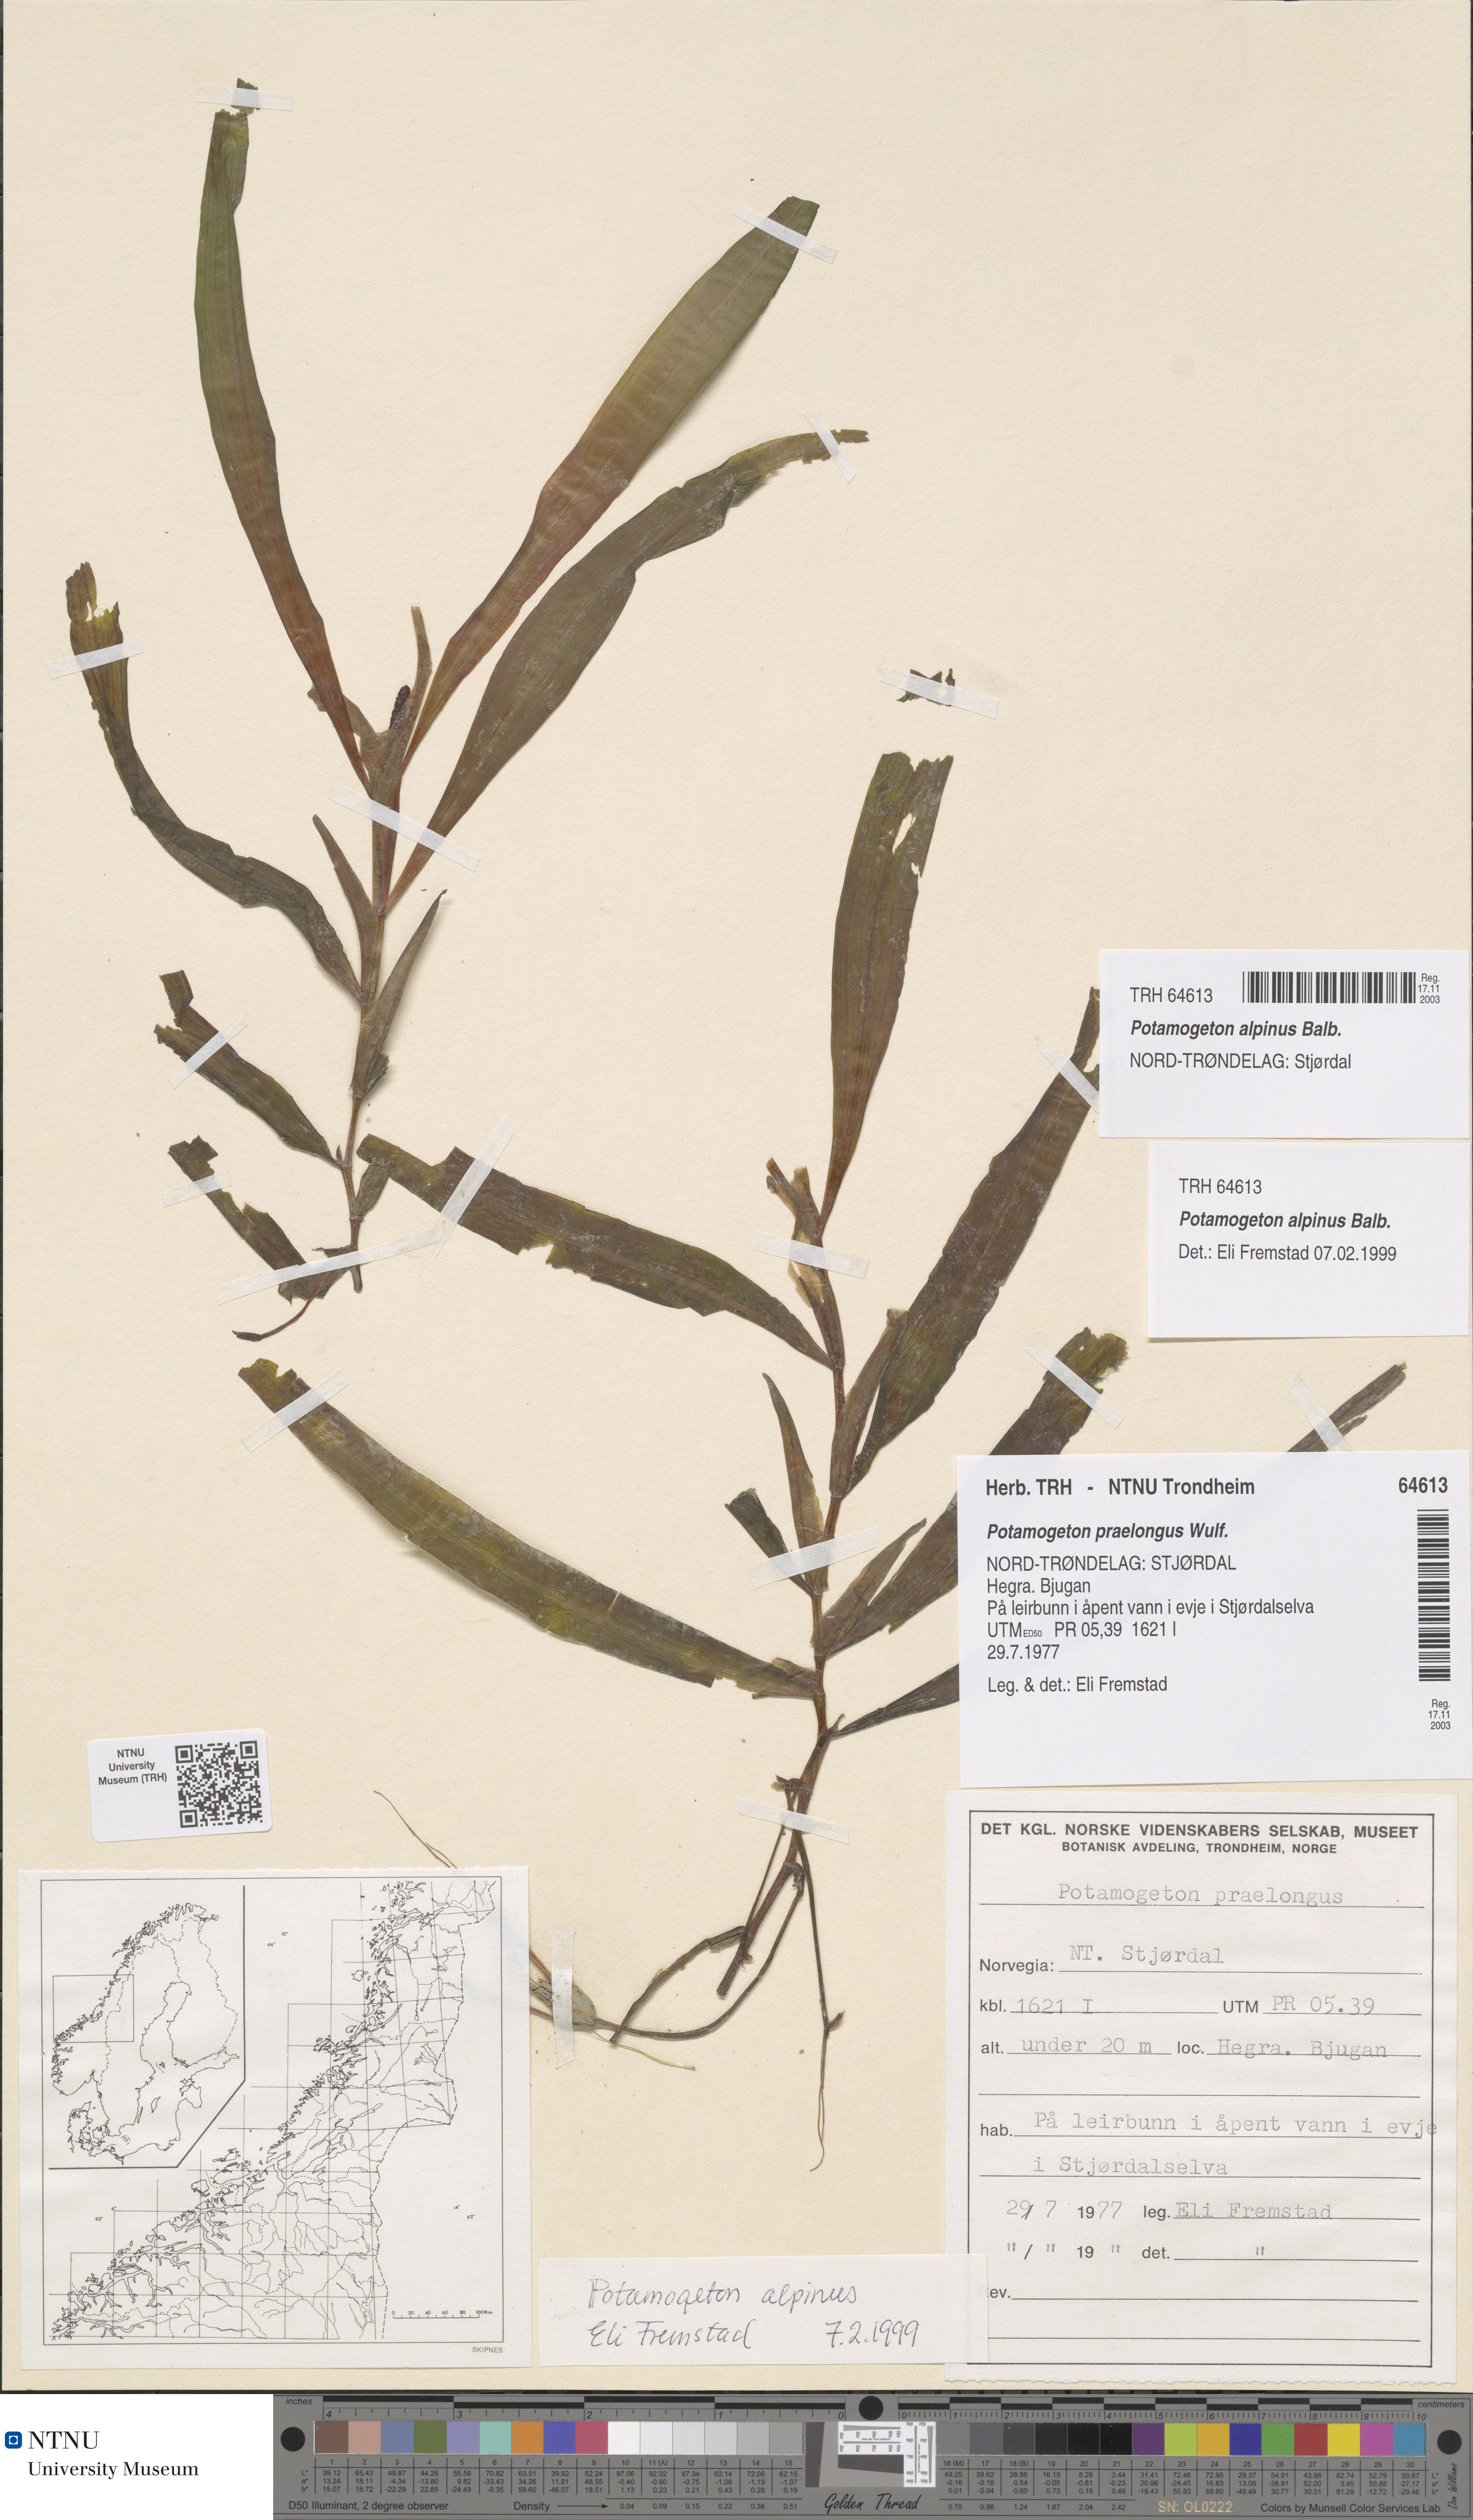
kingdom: Plantae
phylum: Tracheophyta
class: Liliopsida
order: Alismatales
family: Potamogetonaceae
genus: Potamogeton
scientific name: Potamogeton alpinus
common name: Red pondweed
